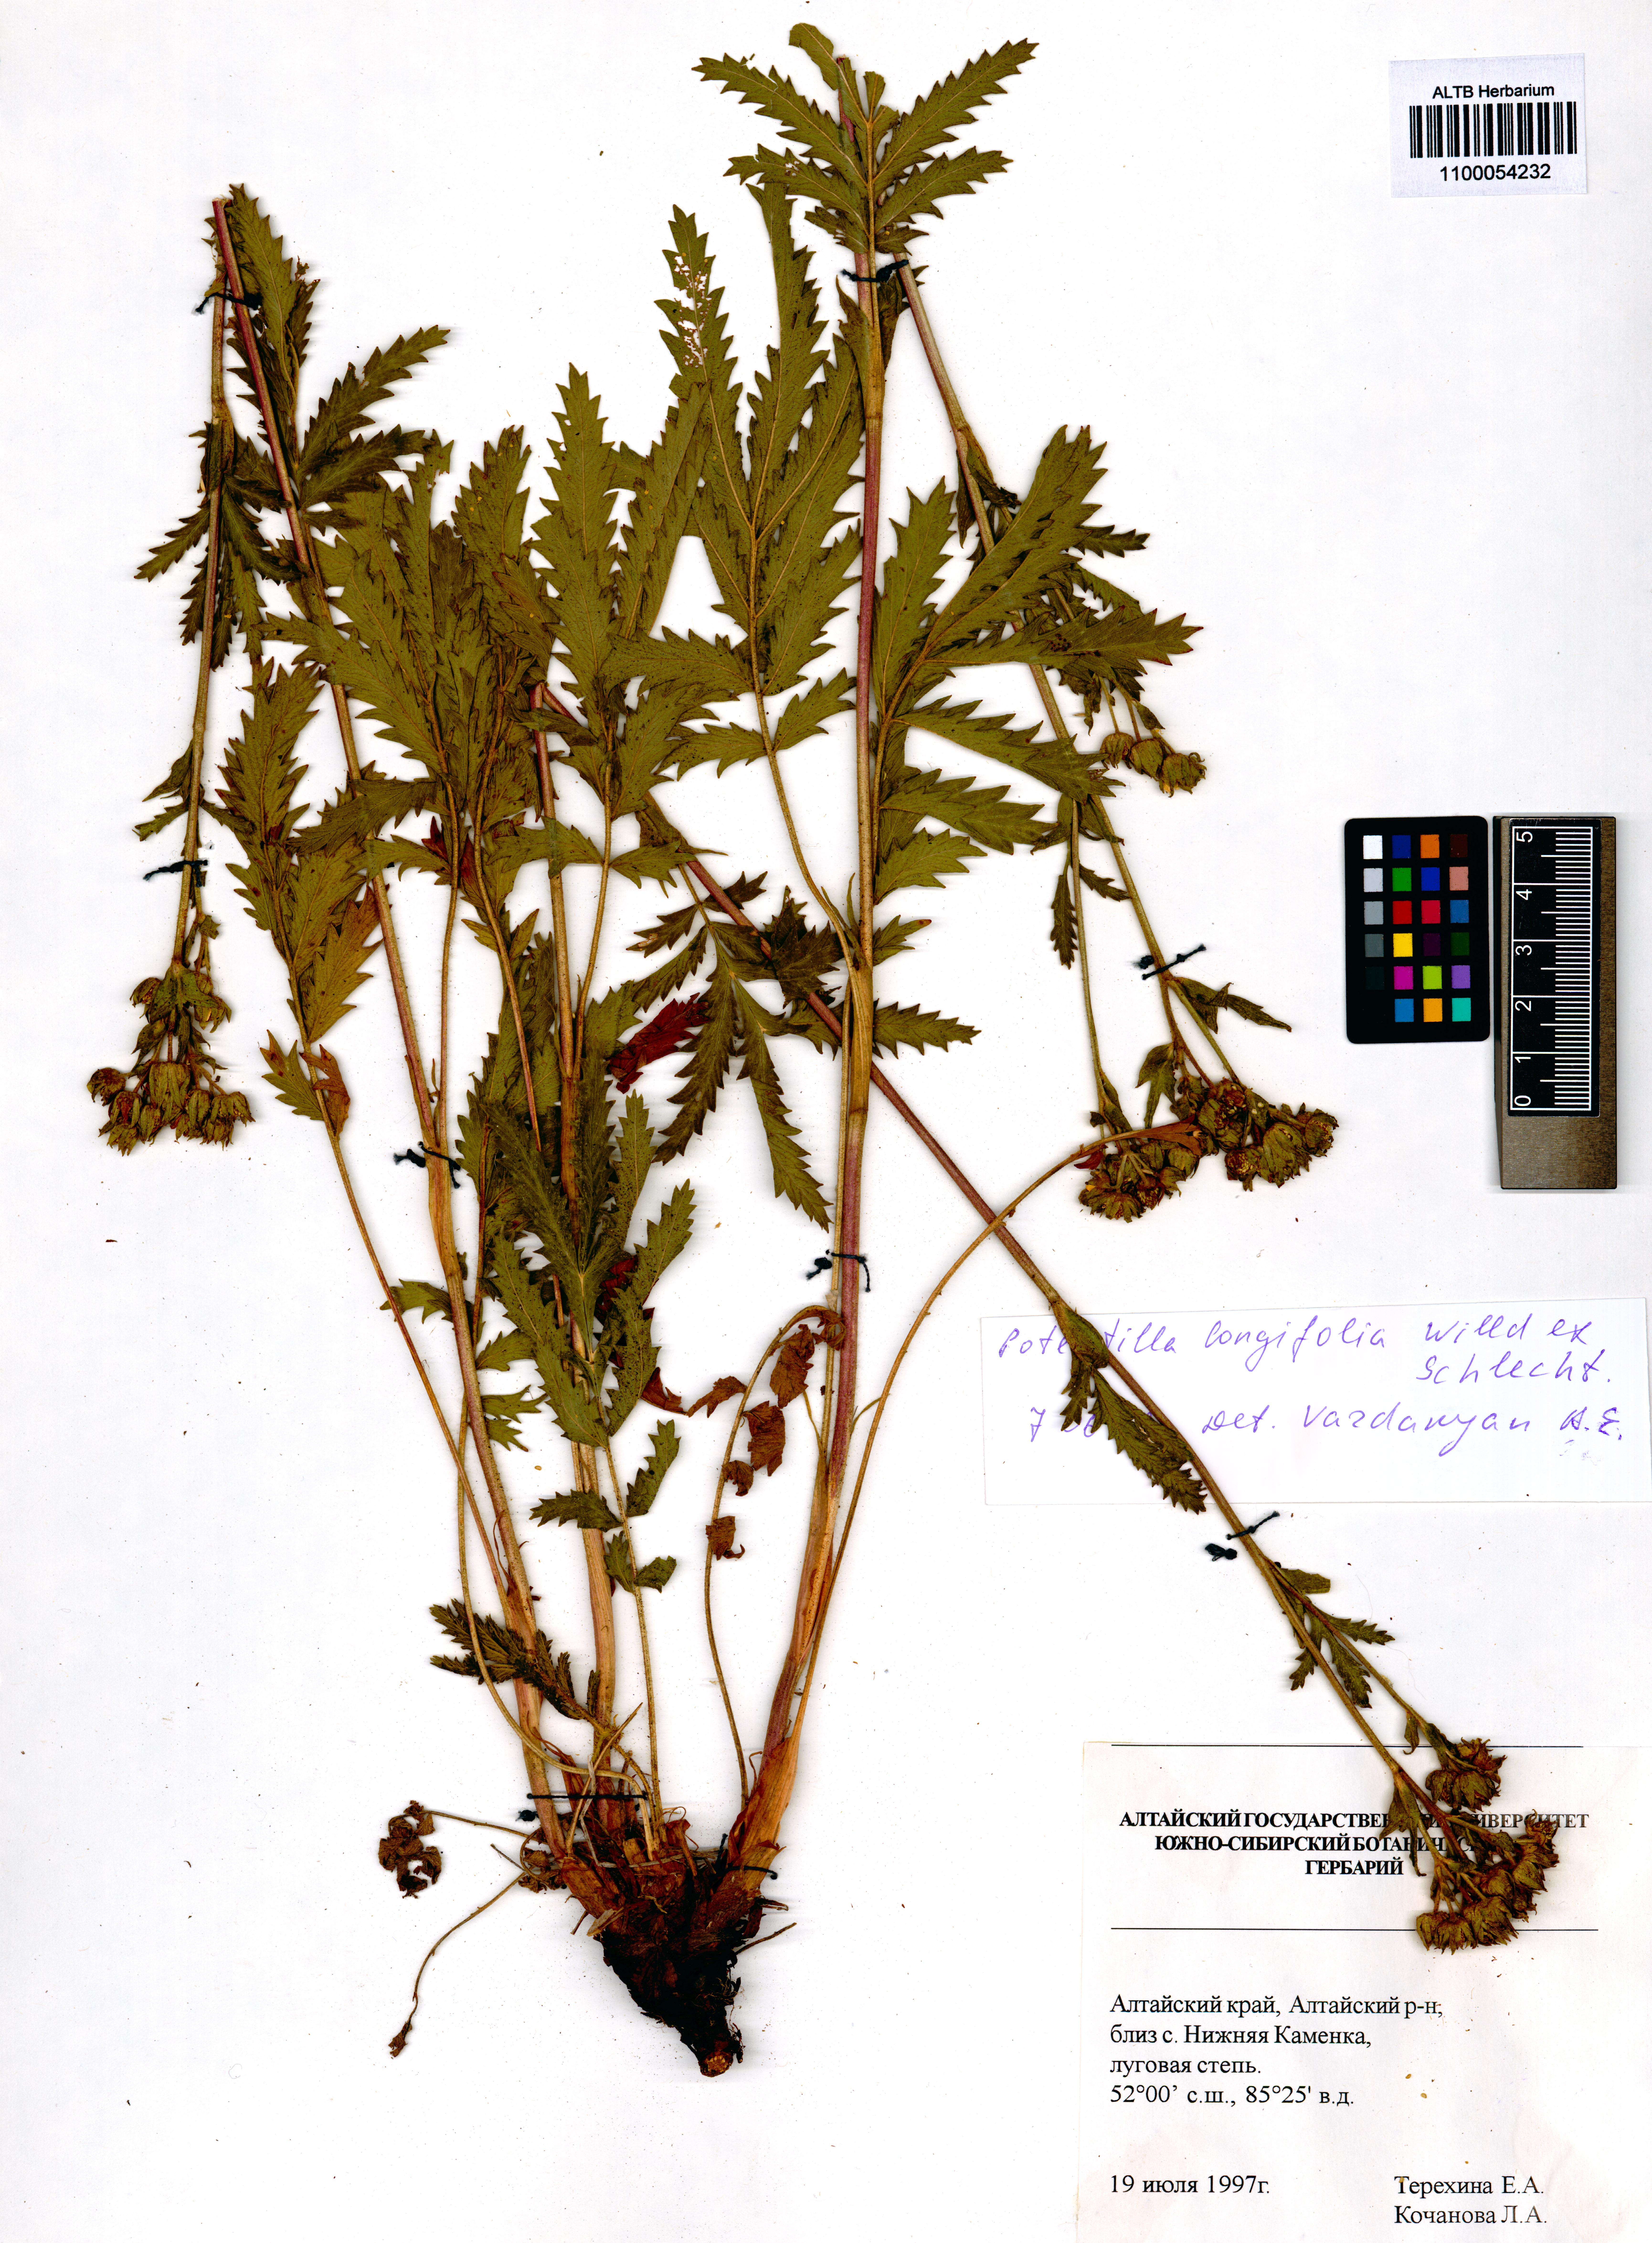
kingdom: Plantae
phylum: Tracheophyta
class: Magnoliopsida
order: Rosales
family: Rosaceae
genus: Potentilla
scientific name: Potentilla longifolia
